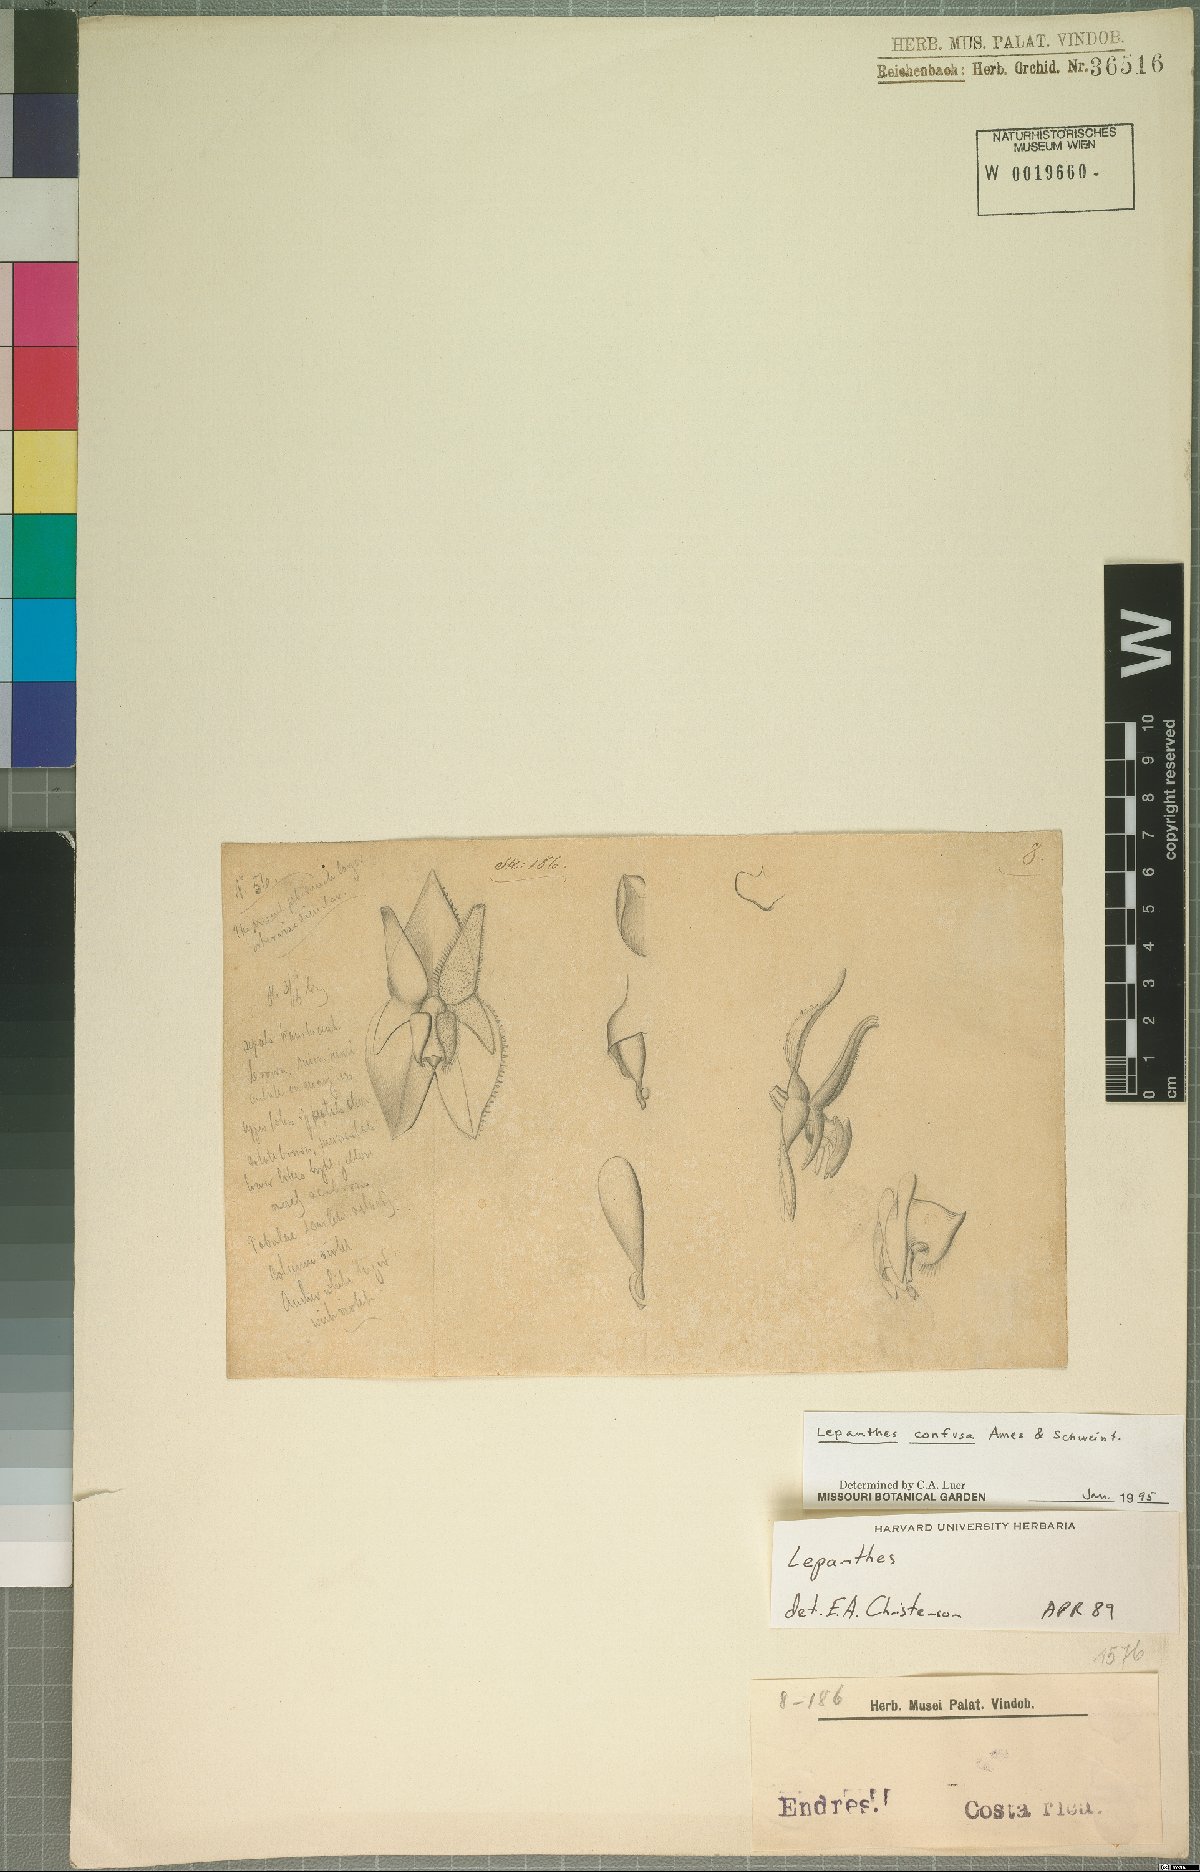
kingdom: Plantae
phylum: Tracheophyta
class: Liliopsida
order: Asparagales
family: Orchidaceae
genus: Lepanthes
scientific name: Lepanthes confusa
